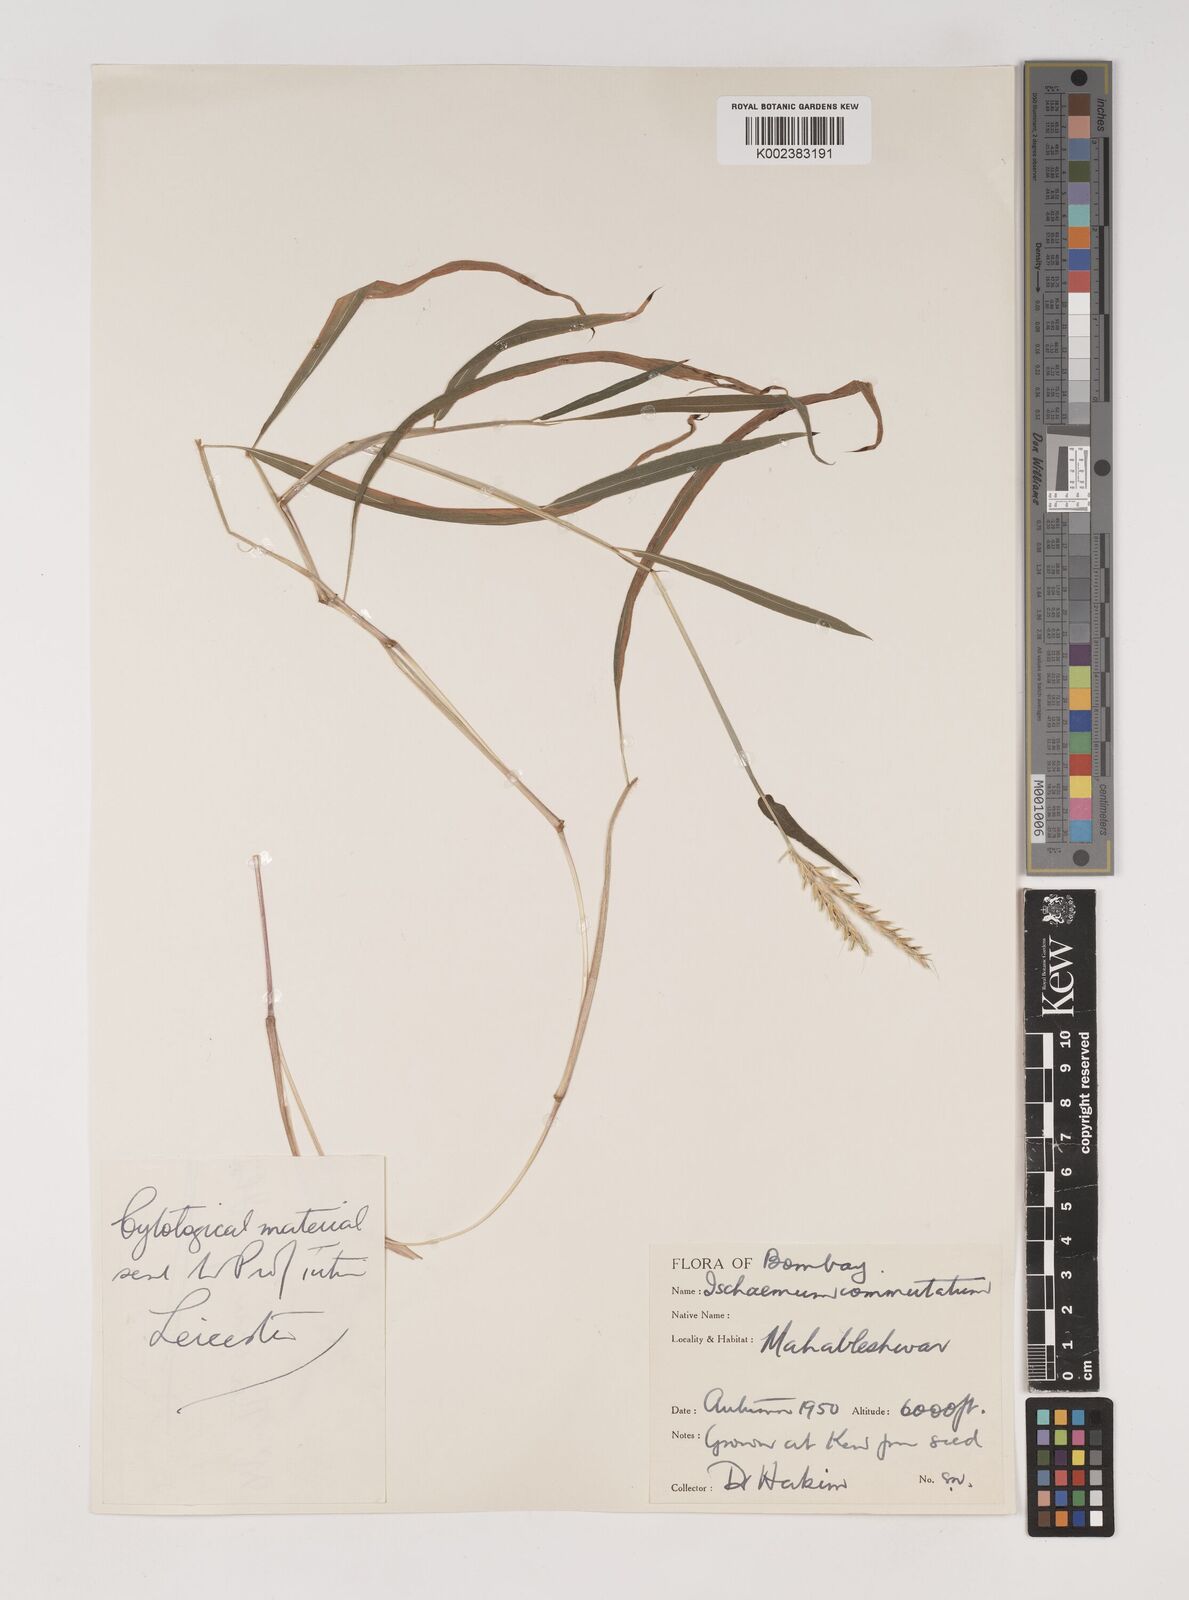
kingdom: Plantae
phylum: Tracheophyta
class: Liliopsida
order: Poales
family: Poaceae
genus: Ischaemum
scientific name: Ischaemum commutatum
